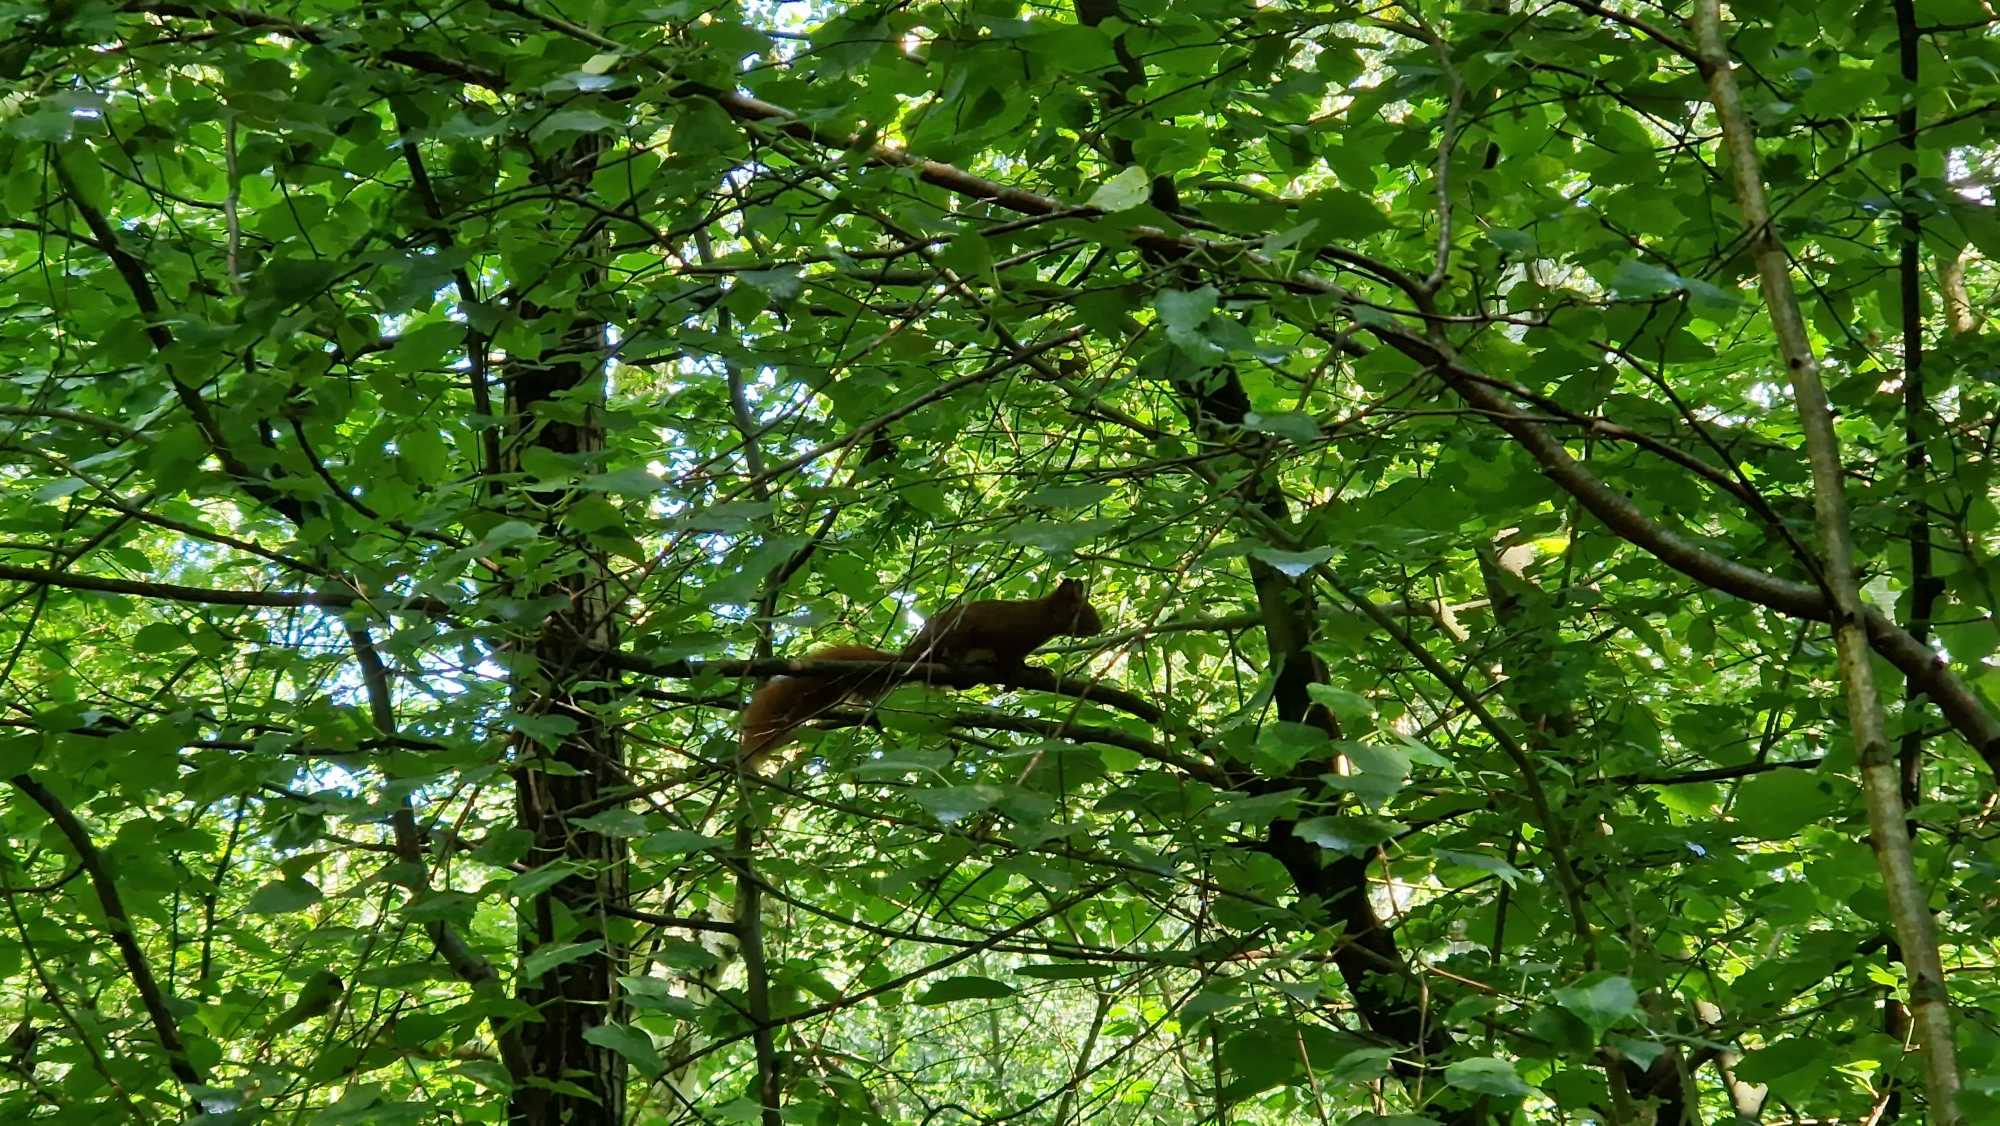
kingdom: Animalia
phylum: Chordata
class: Mammalia
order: Rodentia
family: Sciuridae
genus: Sciurus
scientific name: Sciurus vulgaris
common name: Egern
